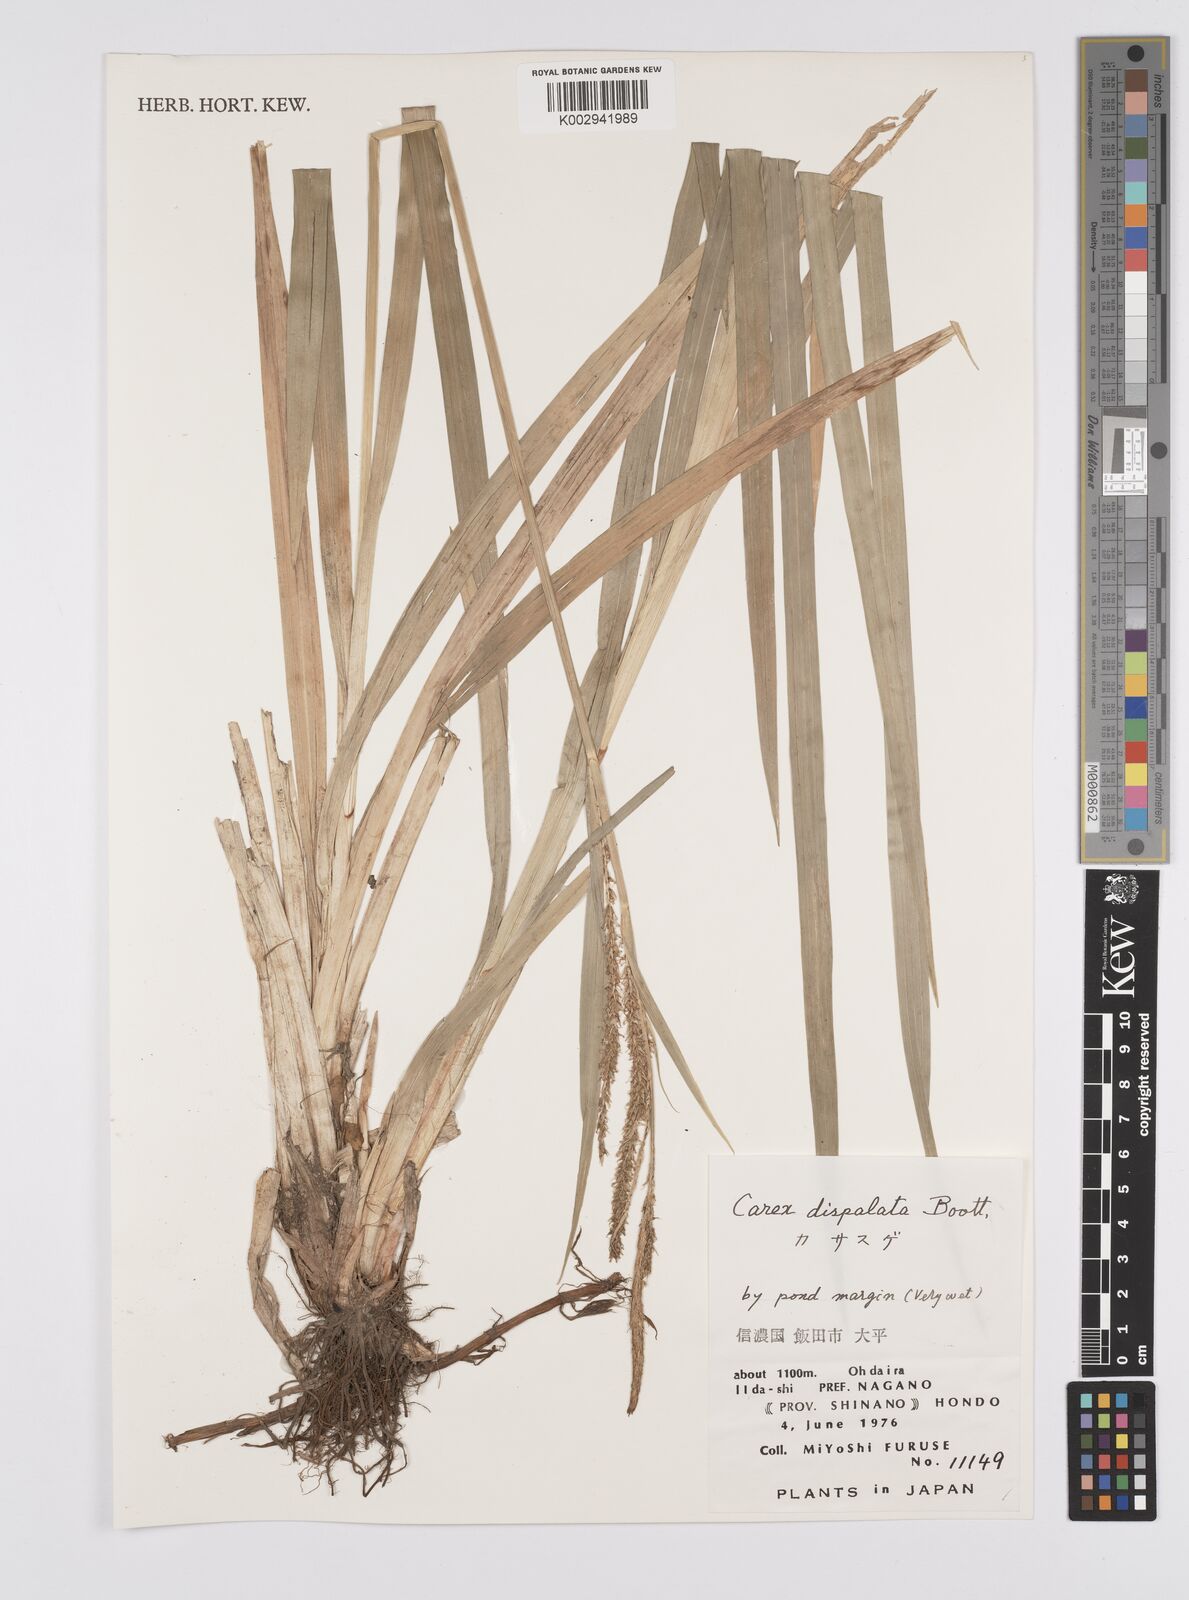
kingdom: Plantae
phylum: Tracheophyta
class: Liliopsida
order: Poales
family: Cyperaceae
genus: Carex
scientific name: Carex dispalata
